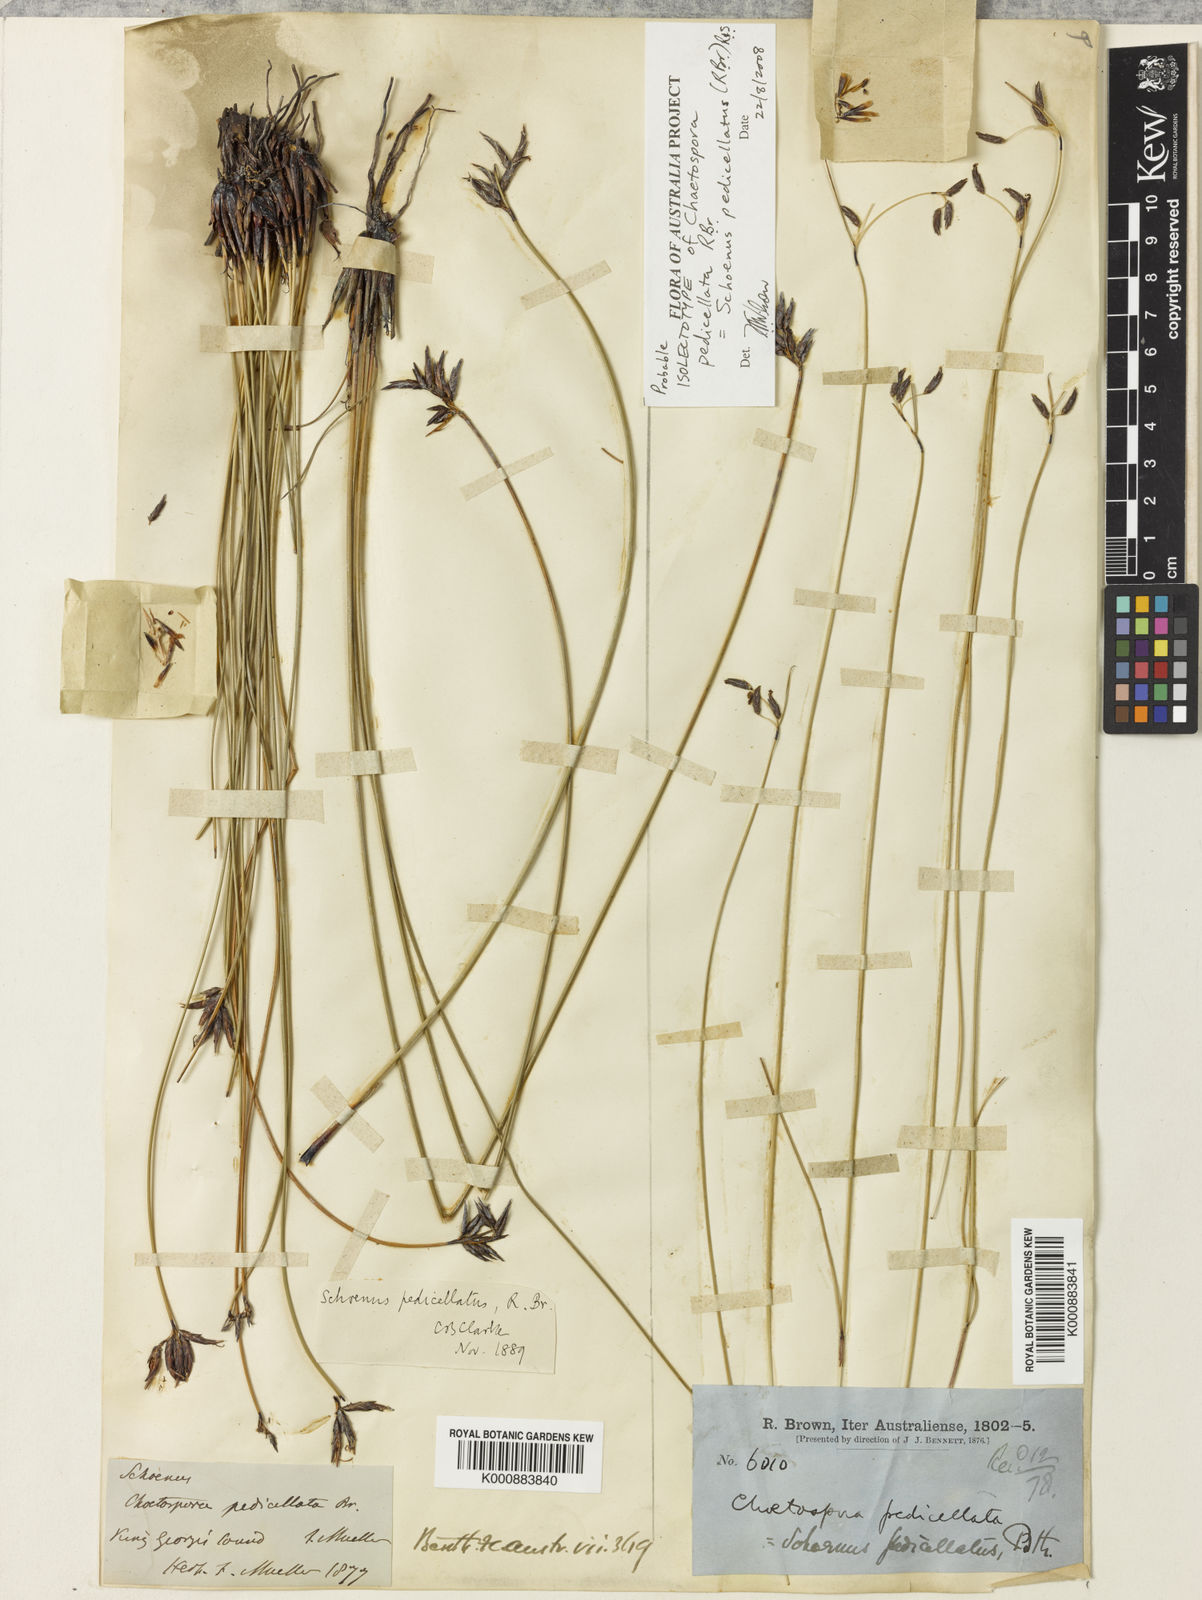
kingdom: Plantae
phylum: Tracheophyta
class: Liliopsida
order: Poales
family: Cyperaceae
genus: Schoenus
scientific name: Schoenus pedicellatus
